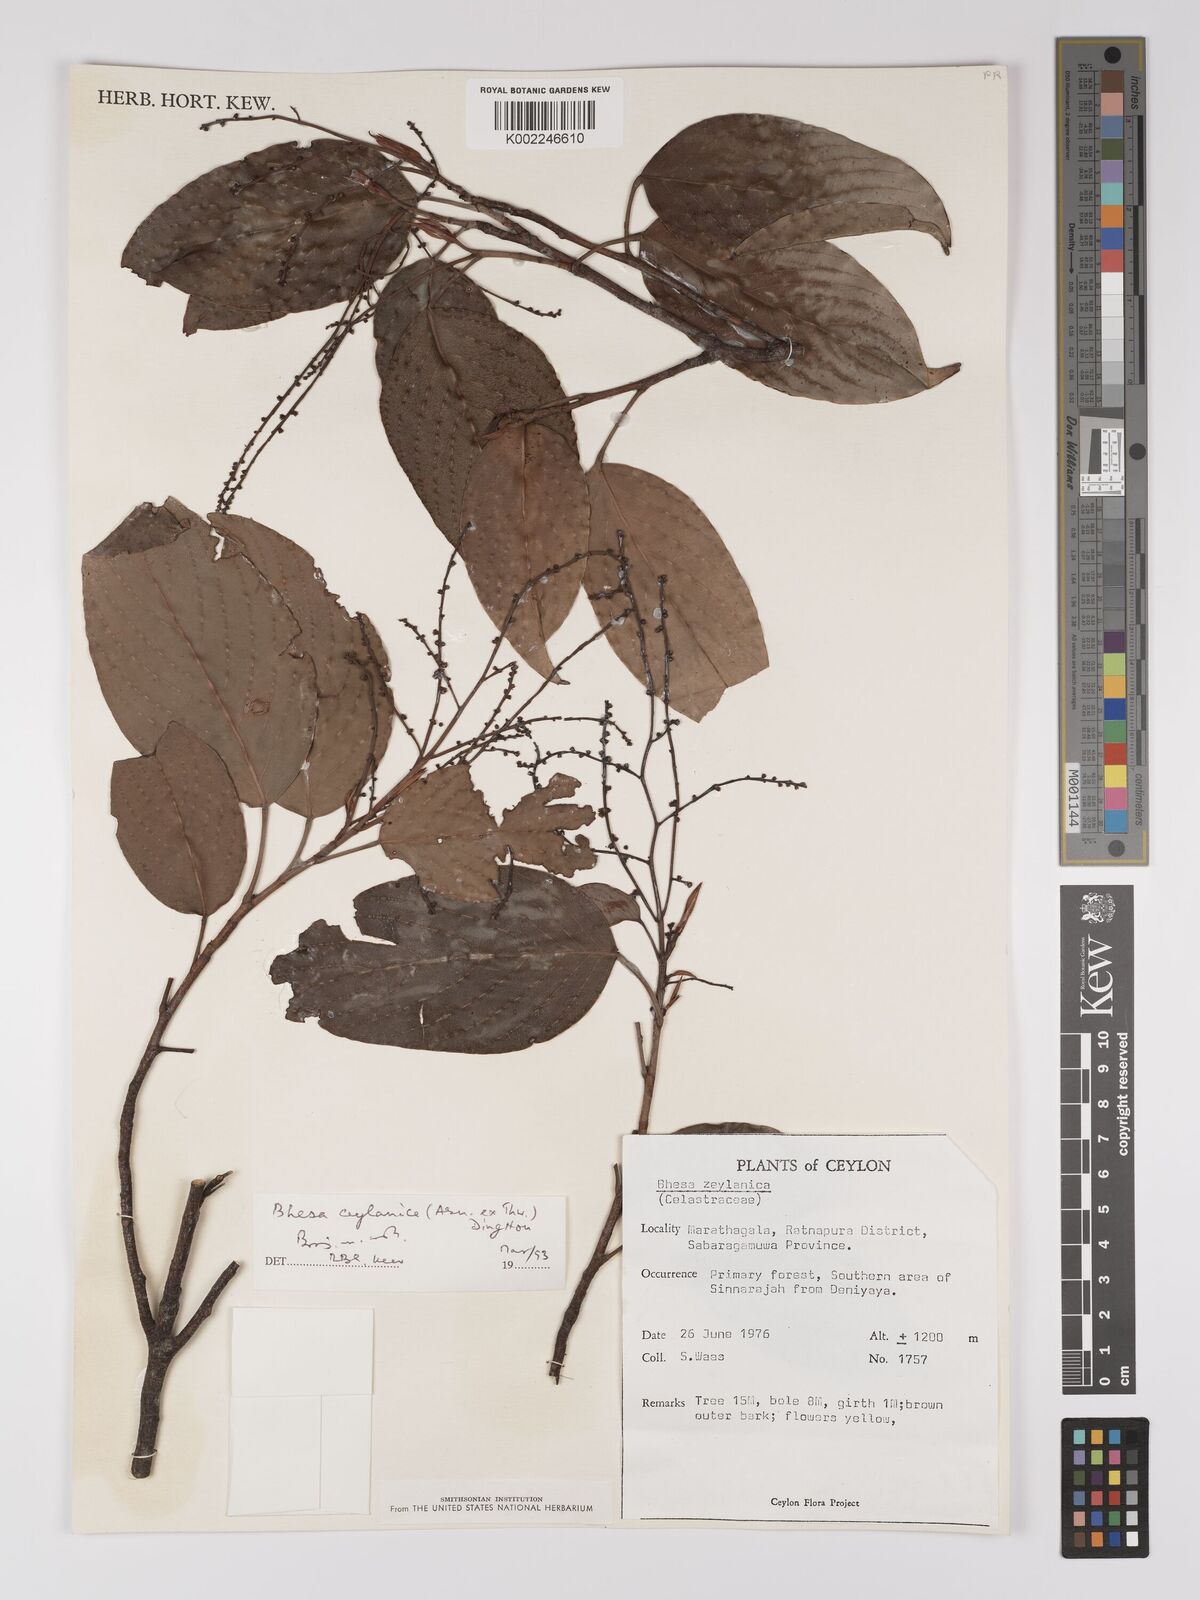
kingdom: Plantae
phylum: Tracheophyta
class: Magnoliopsida
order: Malpighiales
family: Centroplacaceae
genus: Bhesa
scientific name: Bhesa ceylanica
